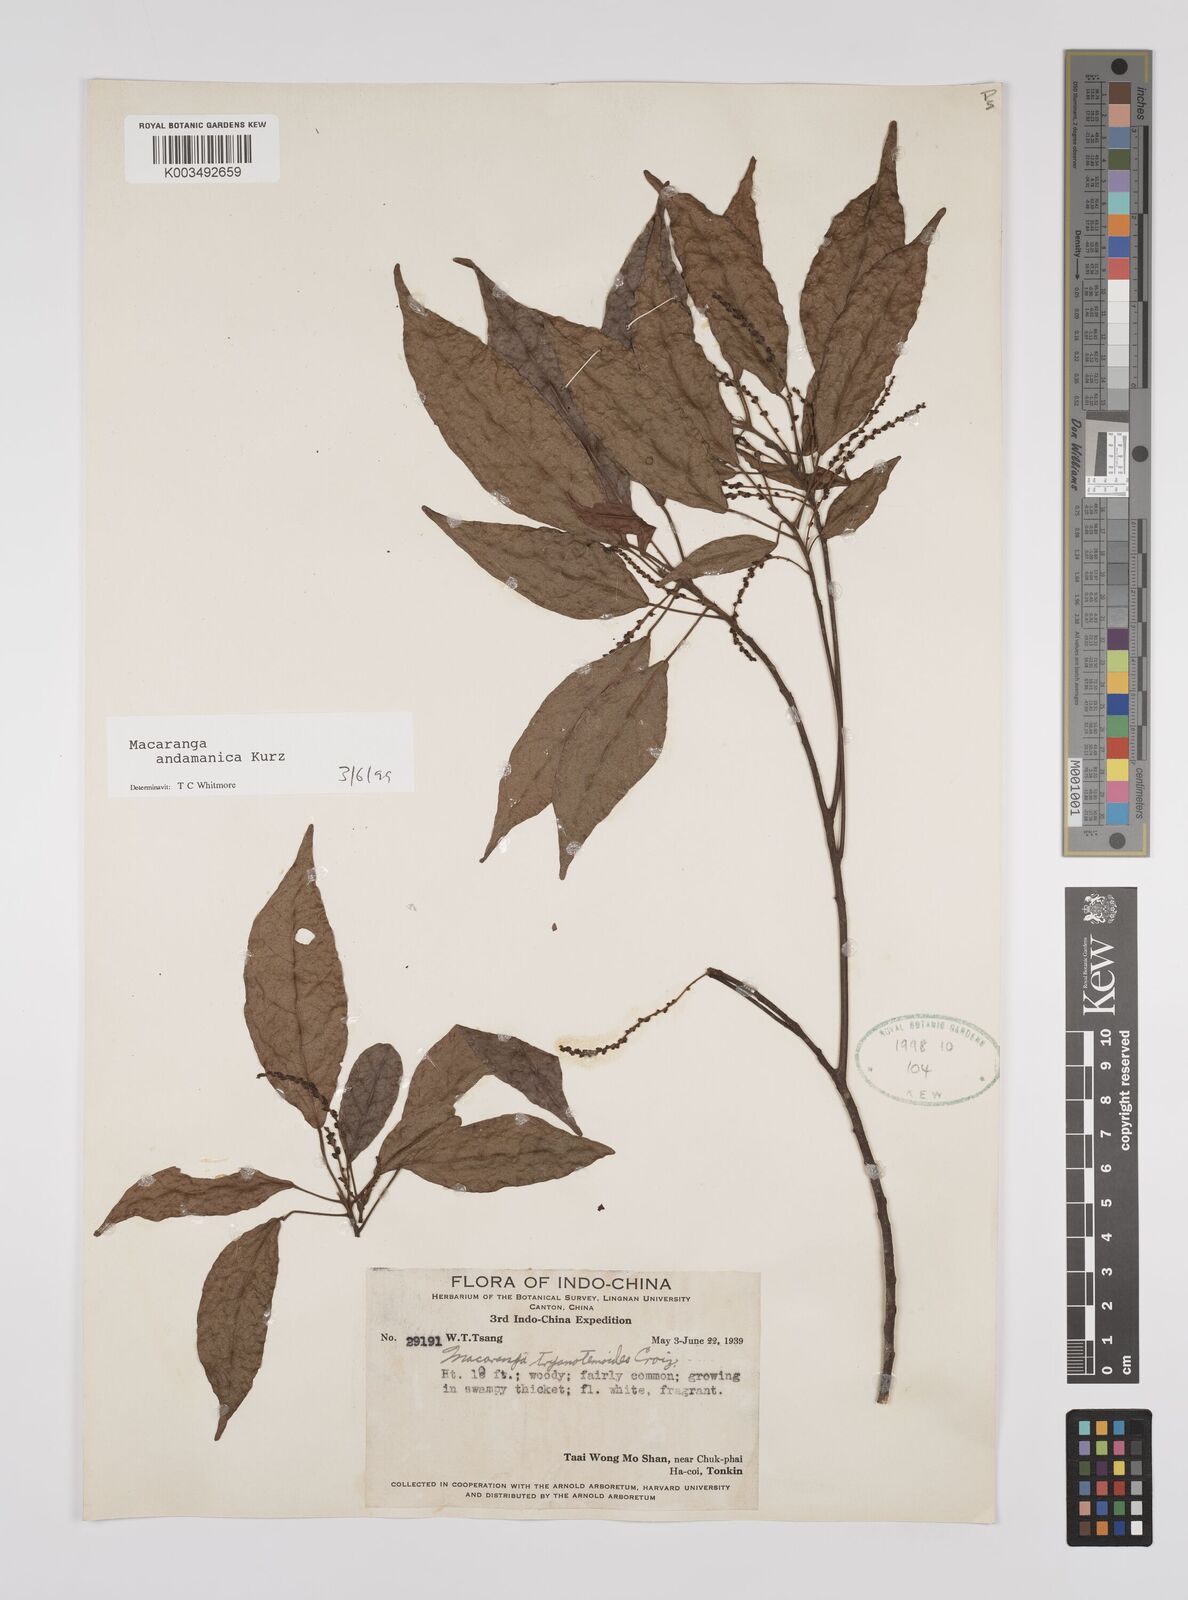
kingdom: Plantae
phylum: Tracheophyta
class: Magnoliopsida
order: Malpighiales
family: Euphorbiaceae
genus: Macaranga
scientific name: Macaranga andamanica
